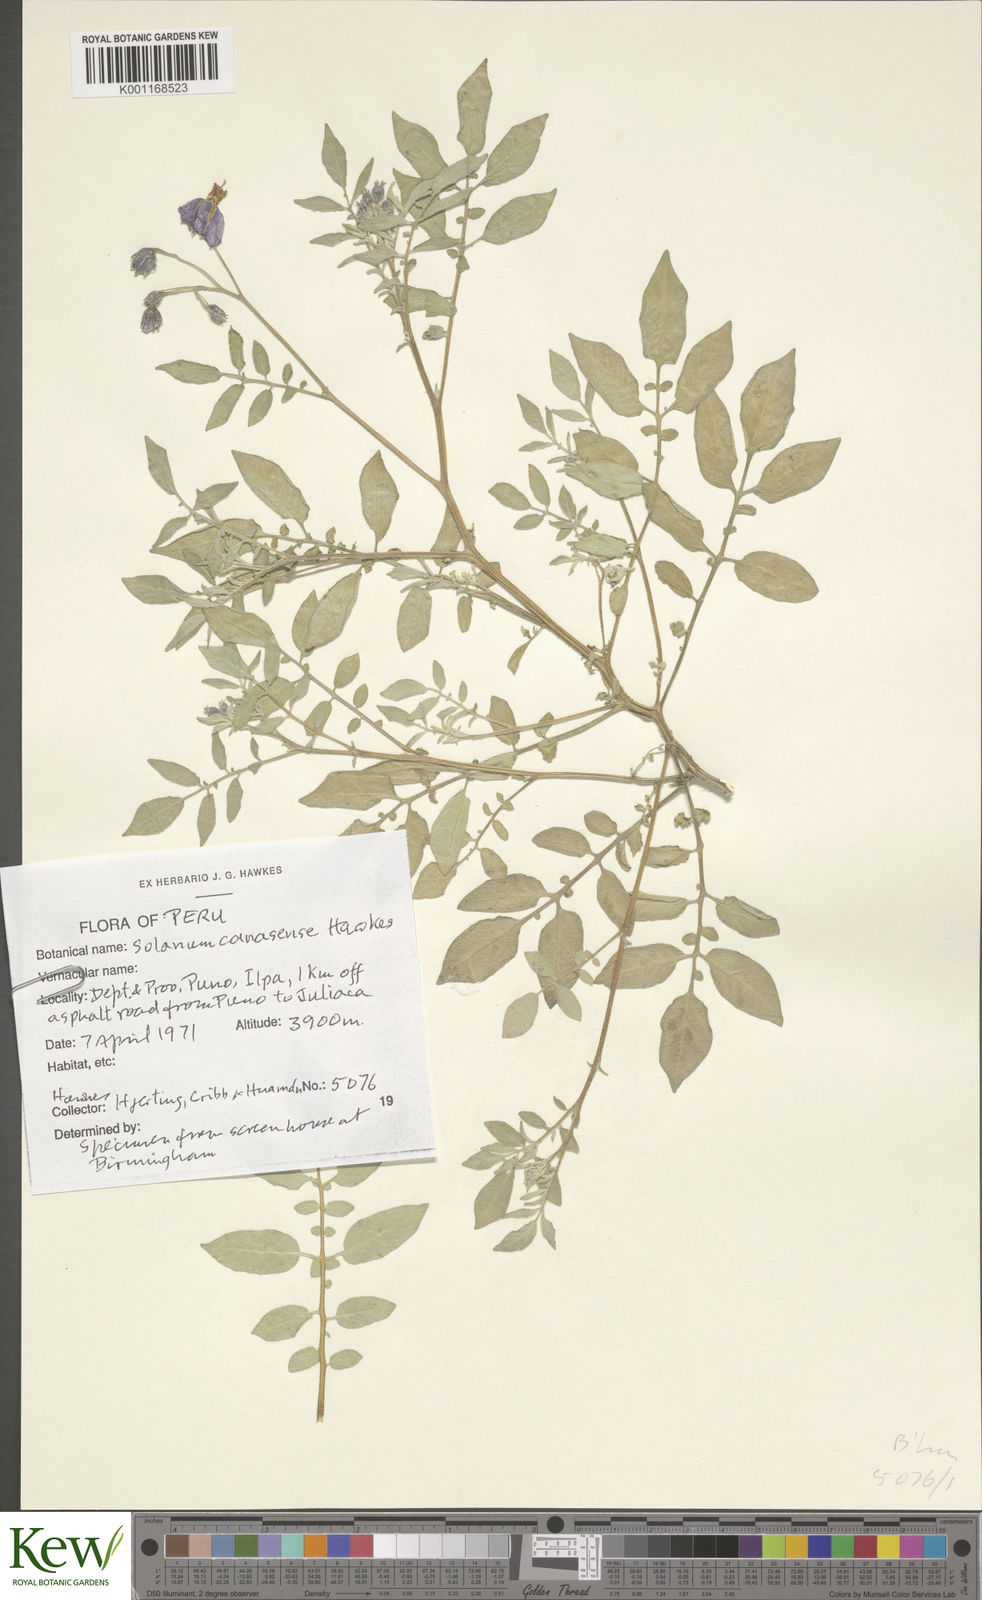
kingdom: Plantae
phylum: Tracheophyta
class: Magnoliopsida
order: Solanales
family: Solanaceae
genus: Solanum
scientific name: Solanum candolleanum
